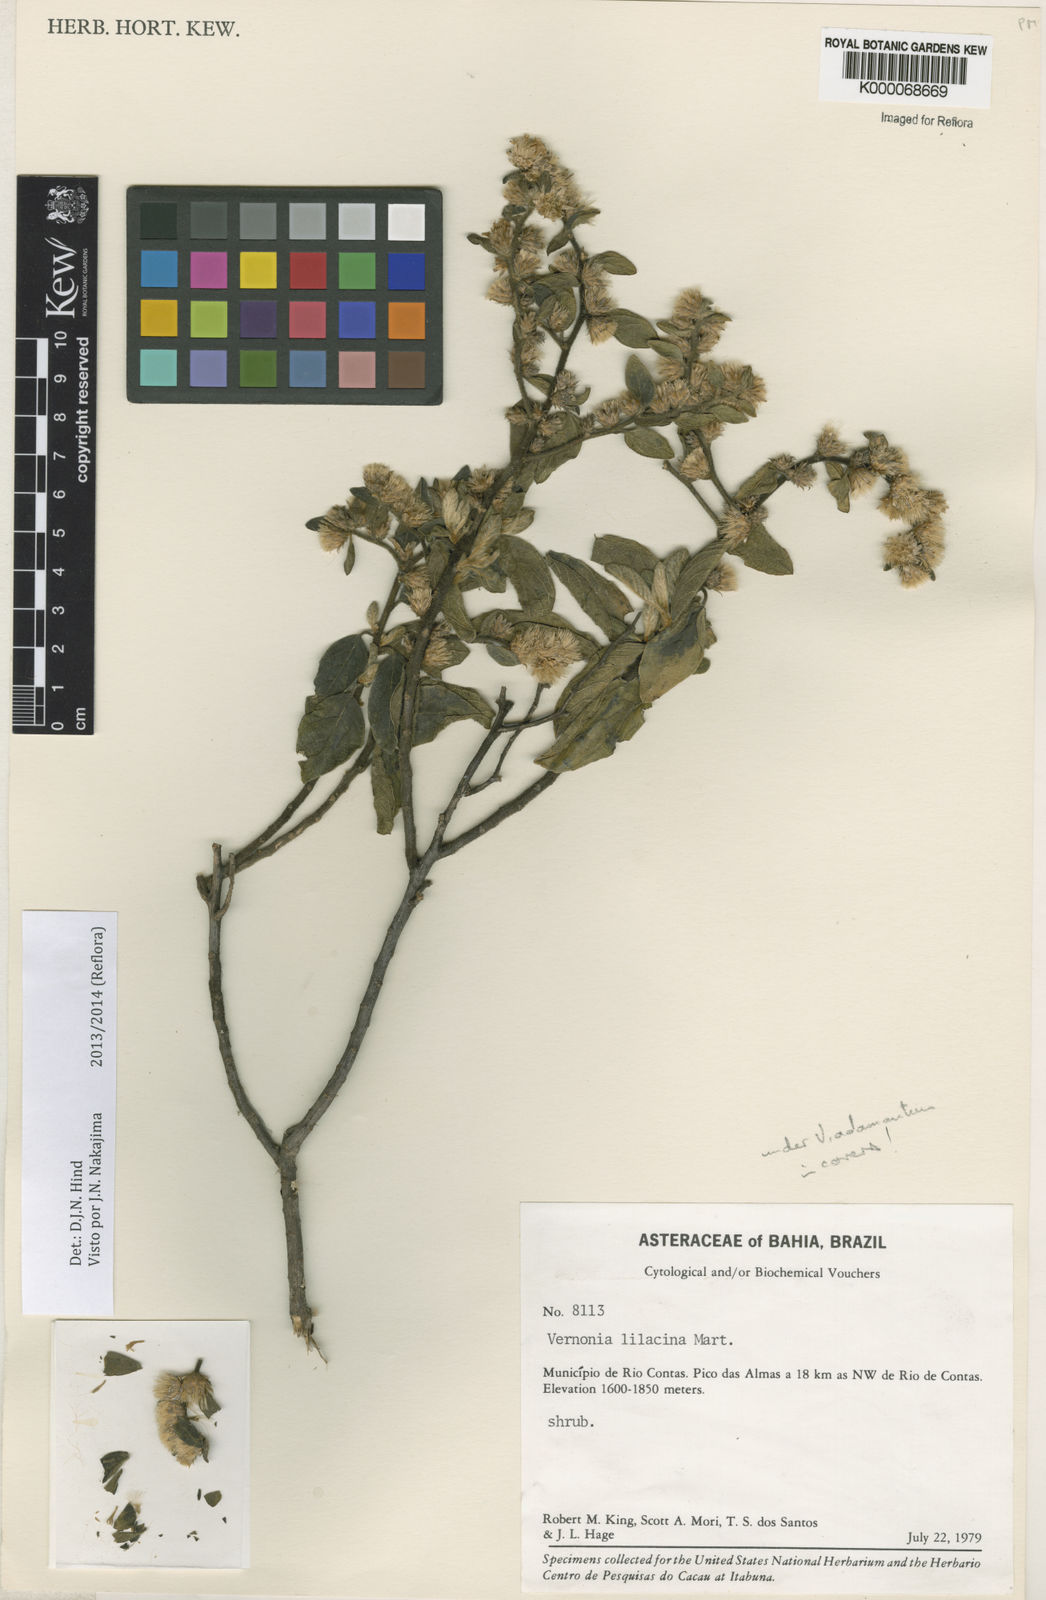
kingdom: Plantae
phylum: Tracheophyta
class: Magnoliopsida
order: Asterales
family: Asteraceae
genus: Lepidaploa
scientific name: Lepidaploa lilacina
